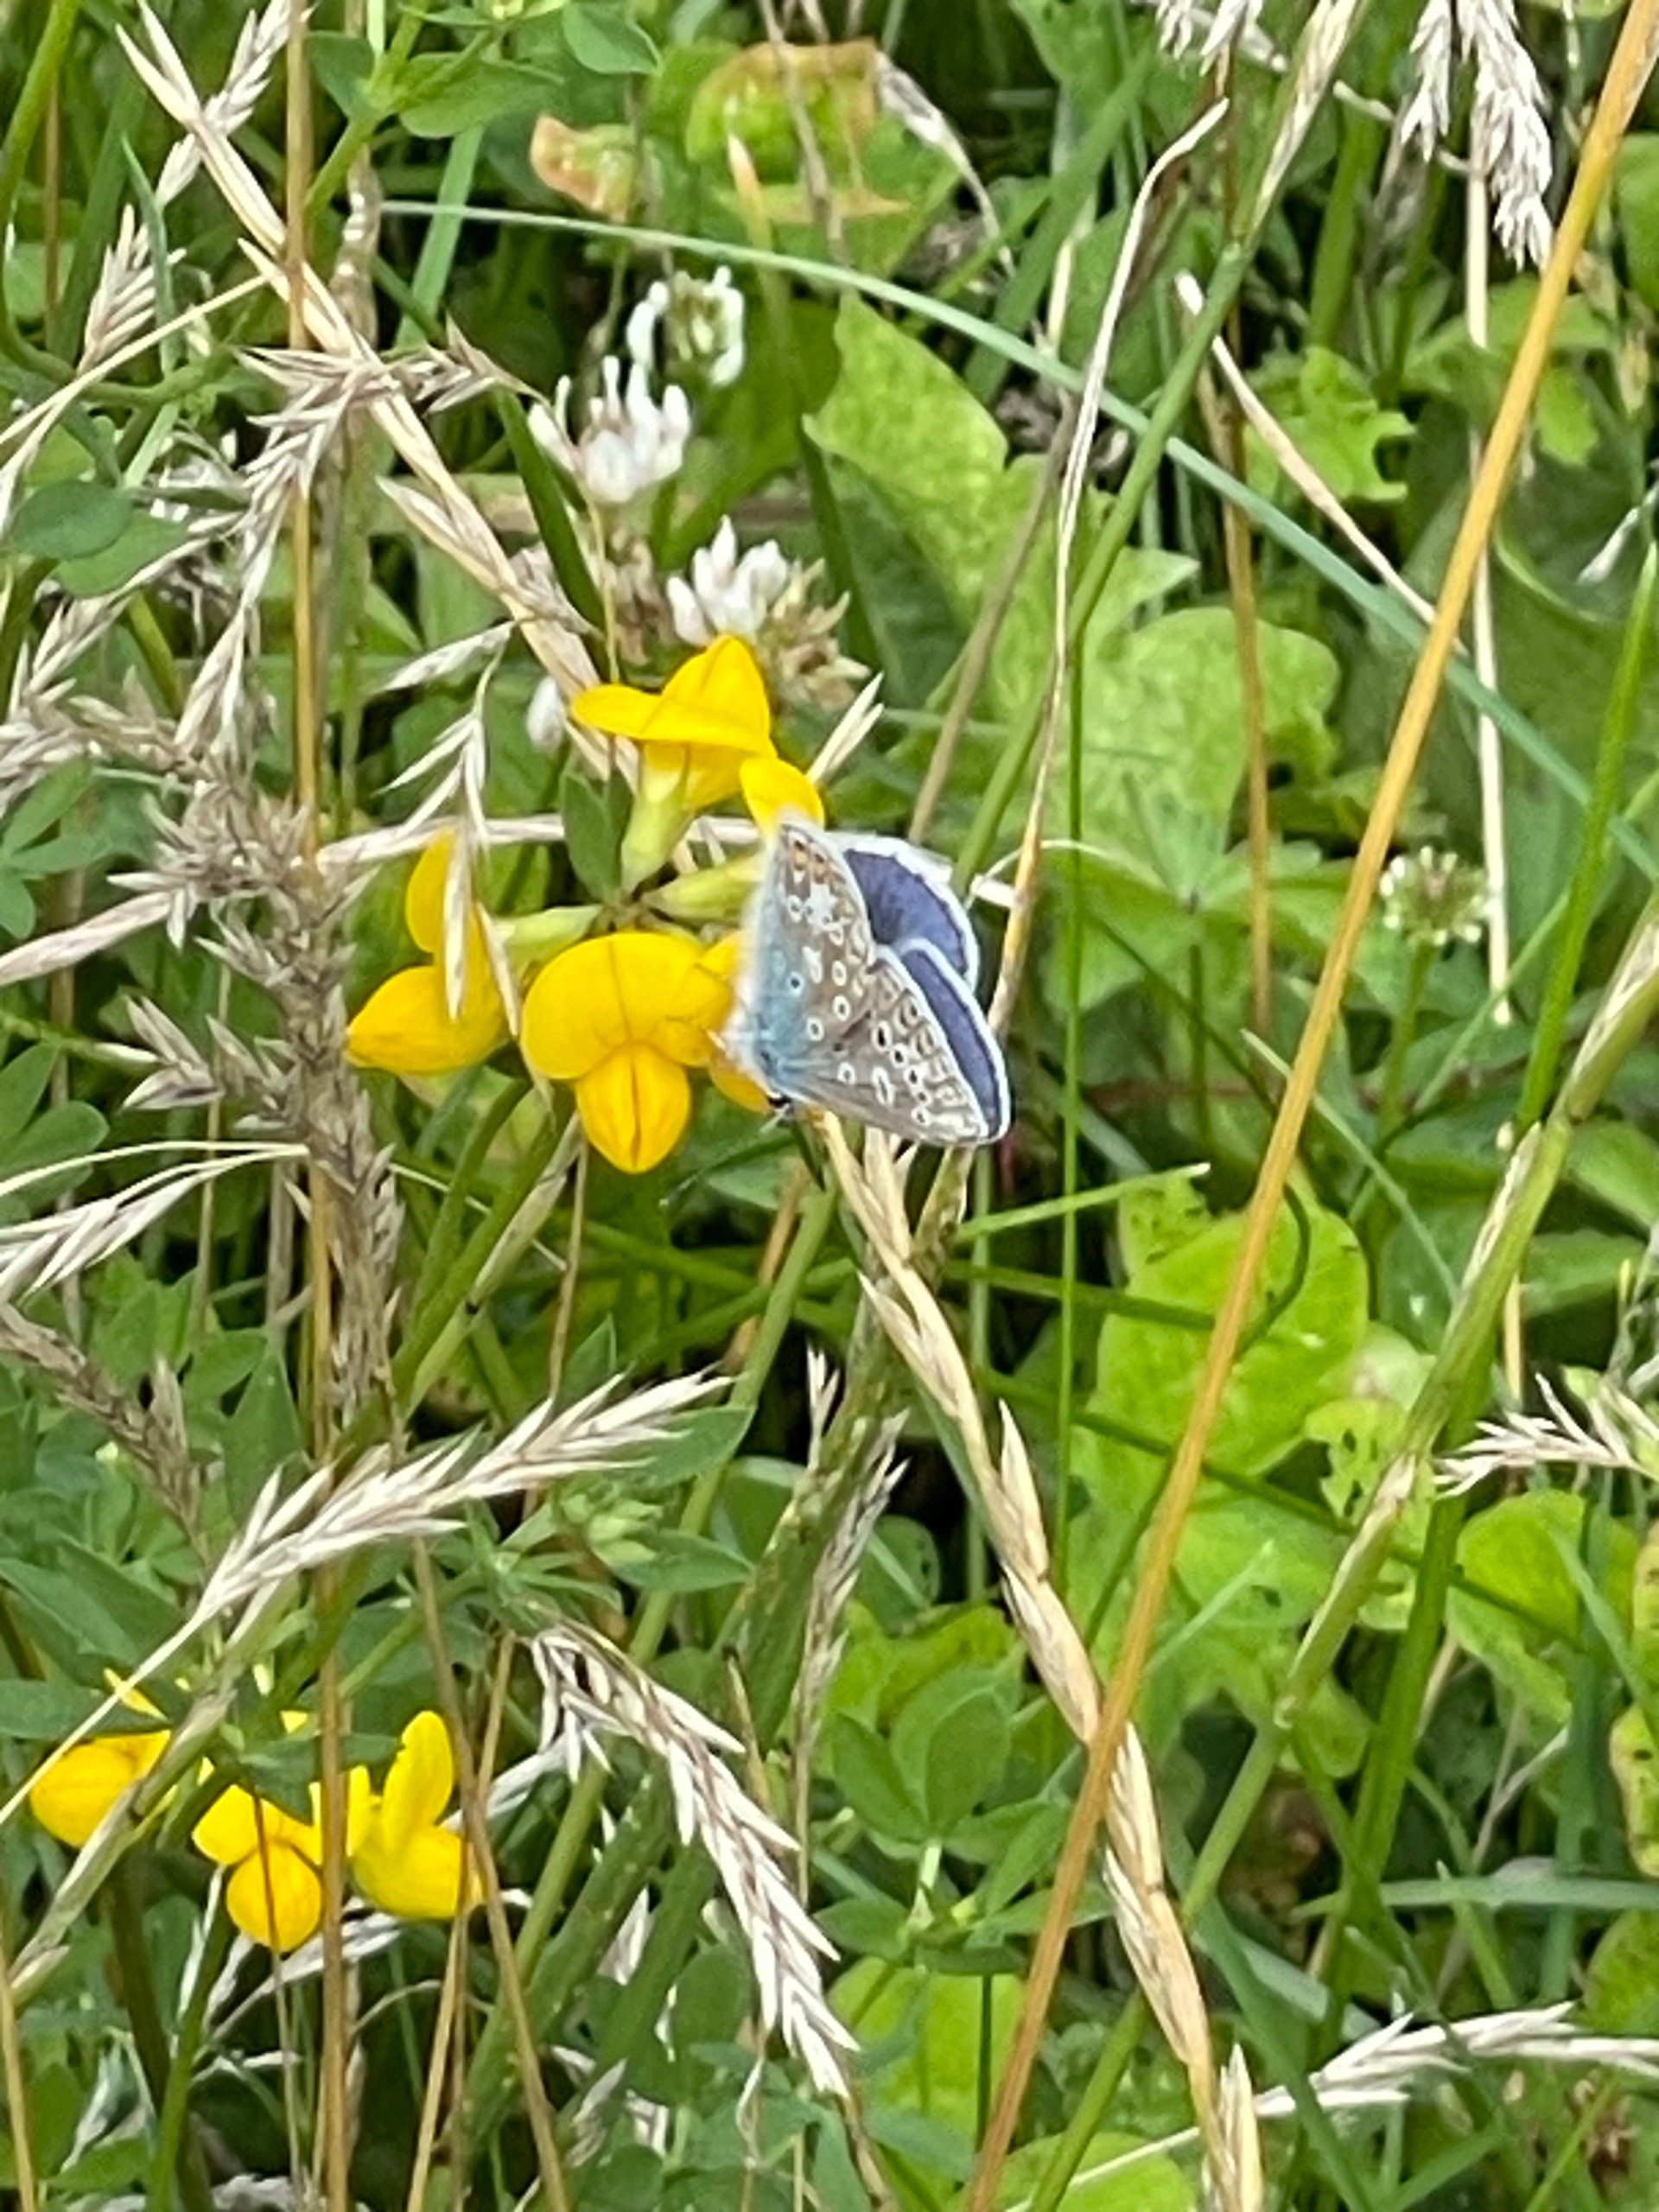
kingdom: Animalia
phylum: Arthropoda
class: Insecta
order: Lepidoptera
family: Lycaenidae
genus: Polyommatus
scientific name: Polyommatus icarus
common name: Almindelig blåfugl
